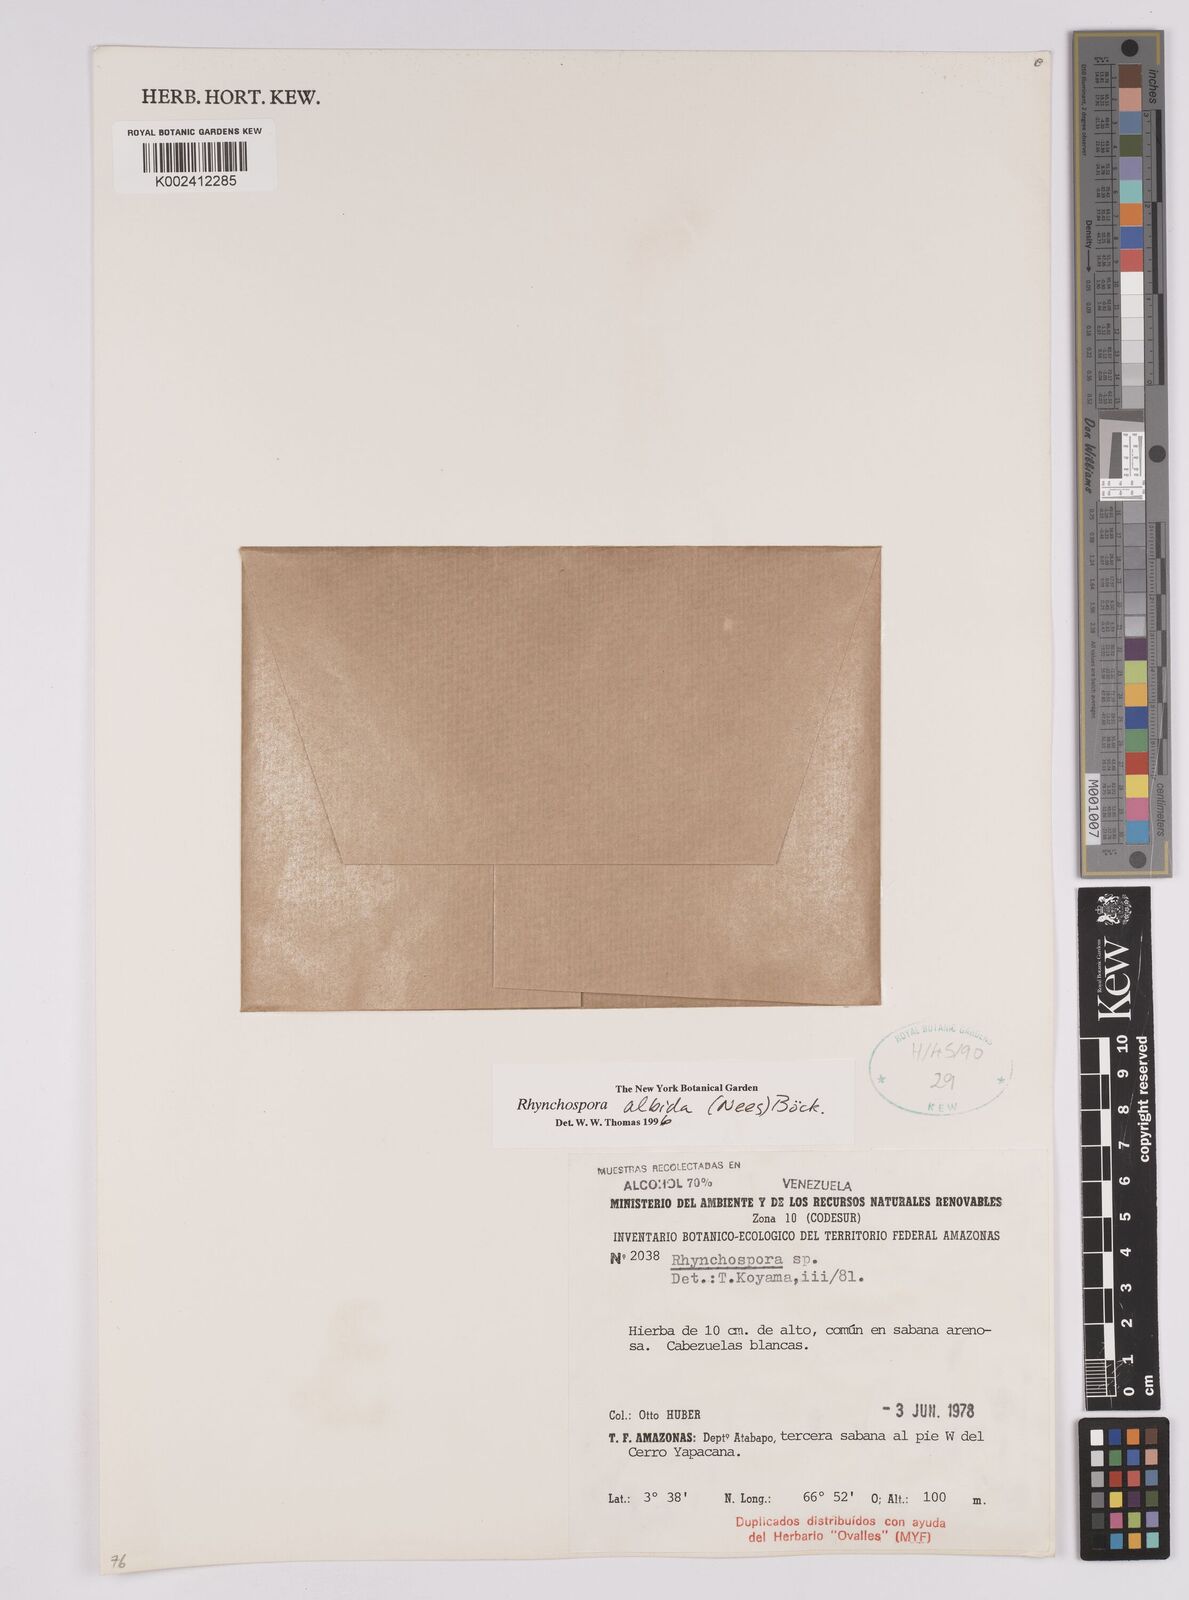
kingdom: Plantae
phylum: Tracheophyta
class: Liliopsida
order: Poales
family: Cyperaceae
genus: Rhynchospora
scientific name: Rhynchospora albida
